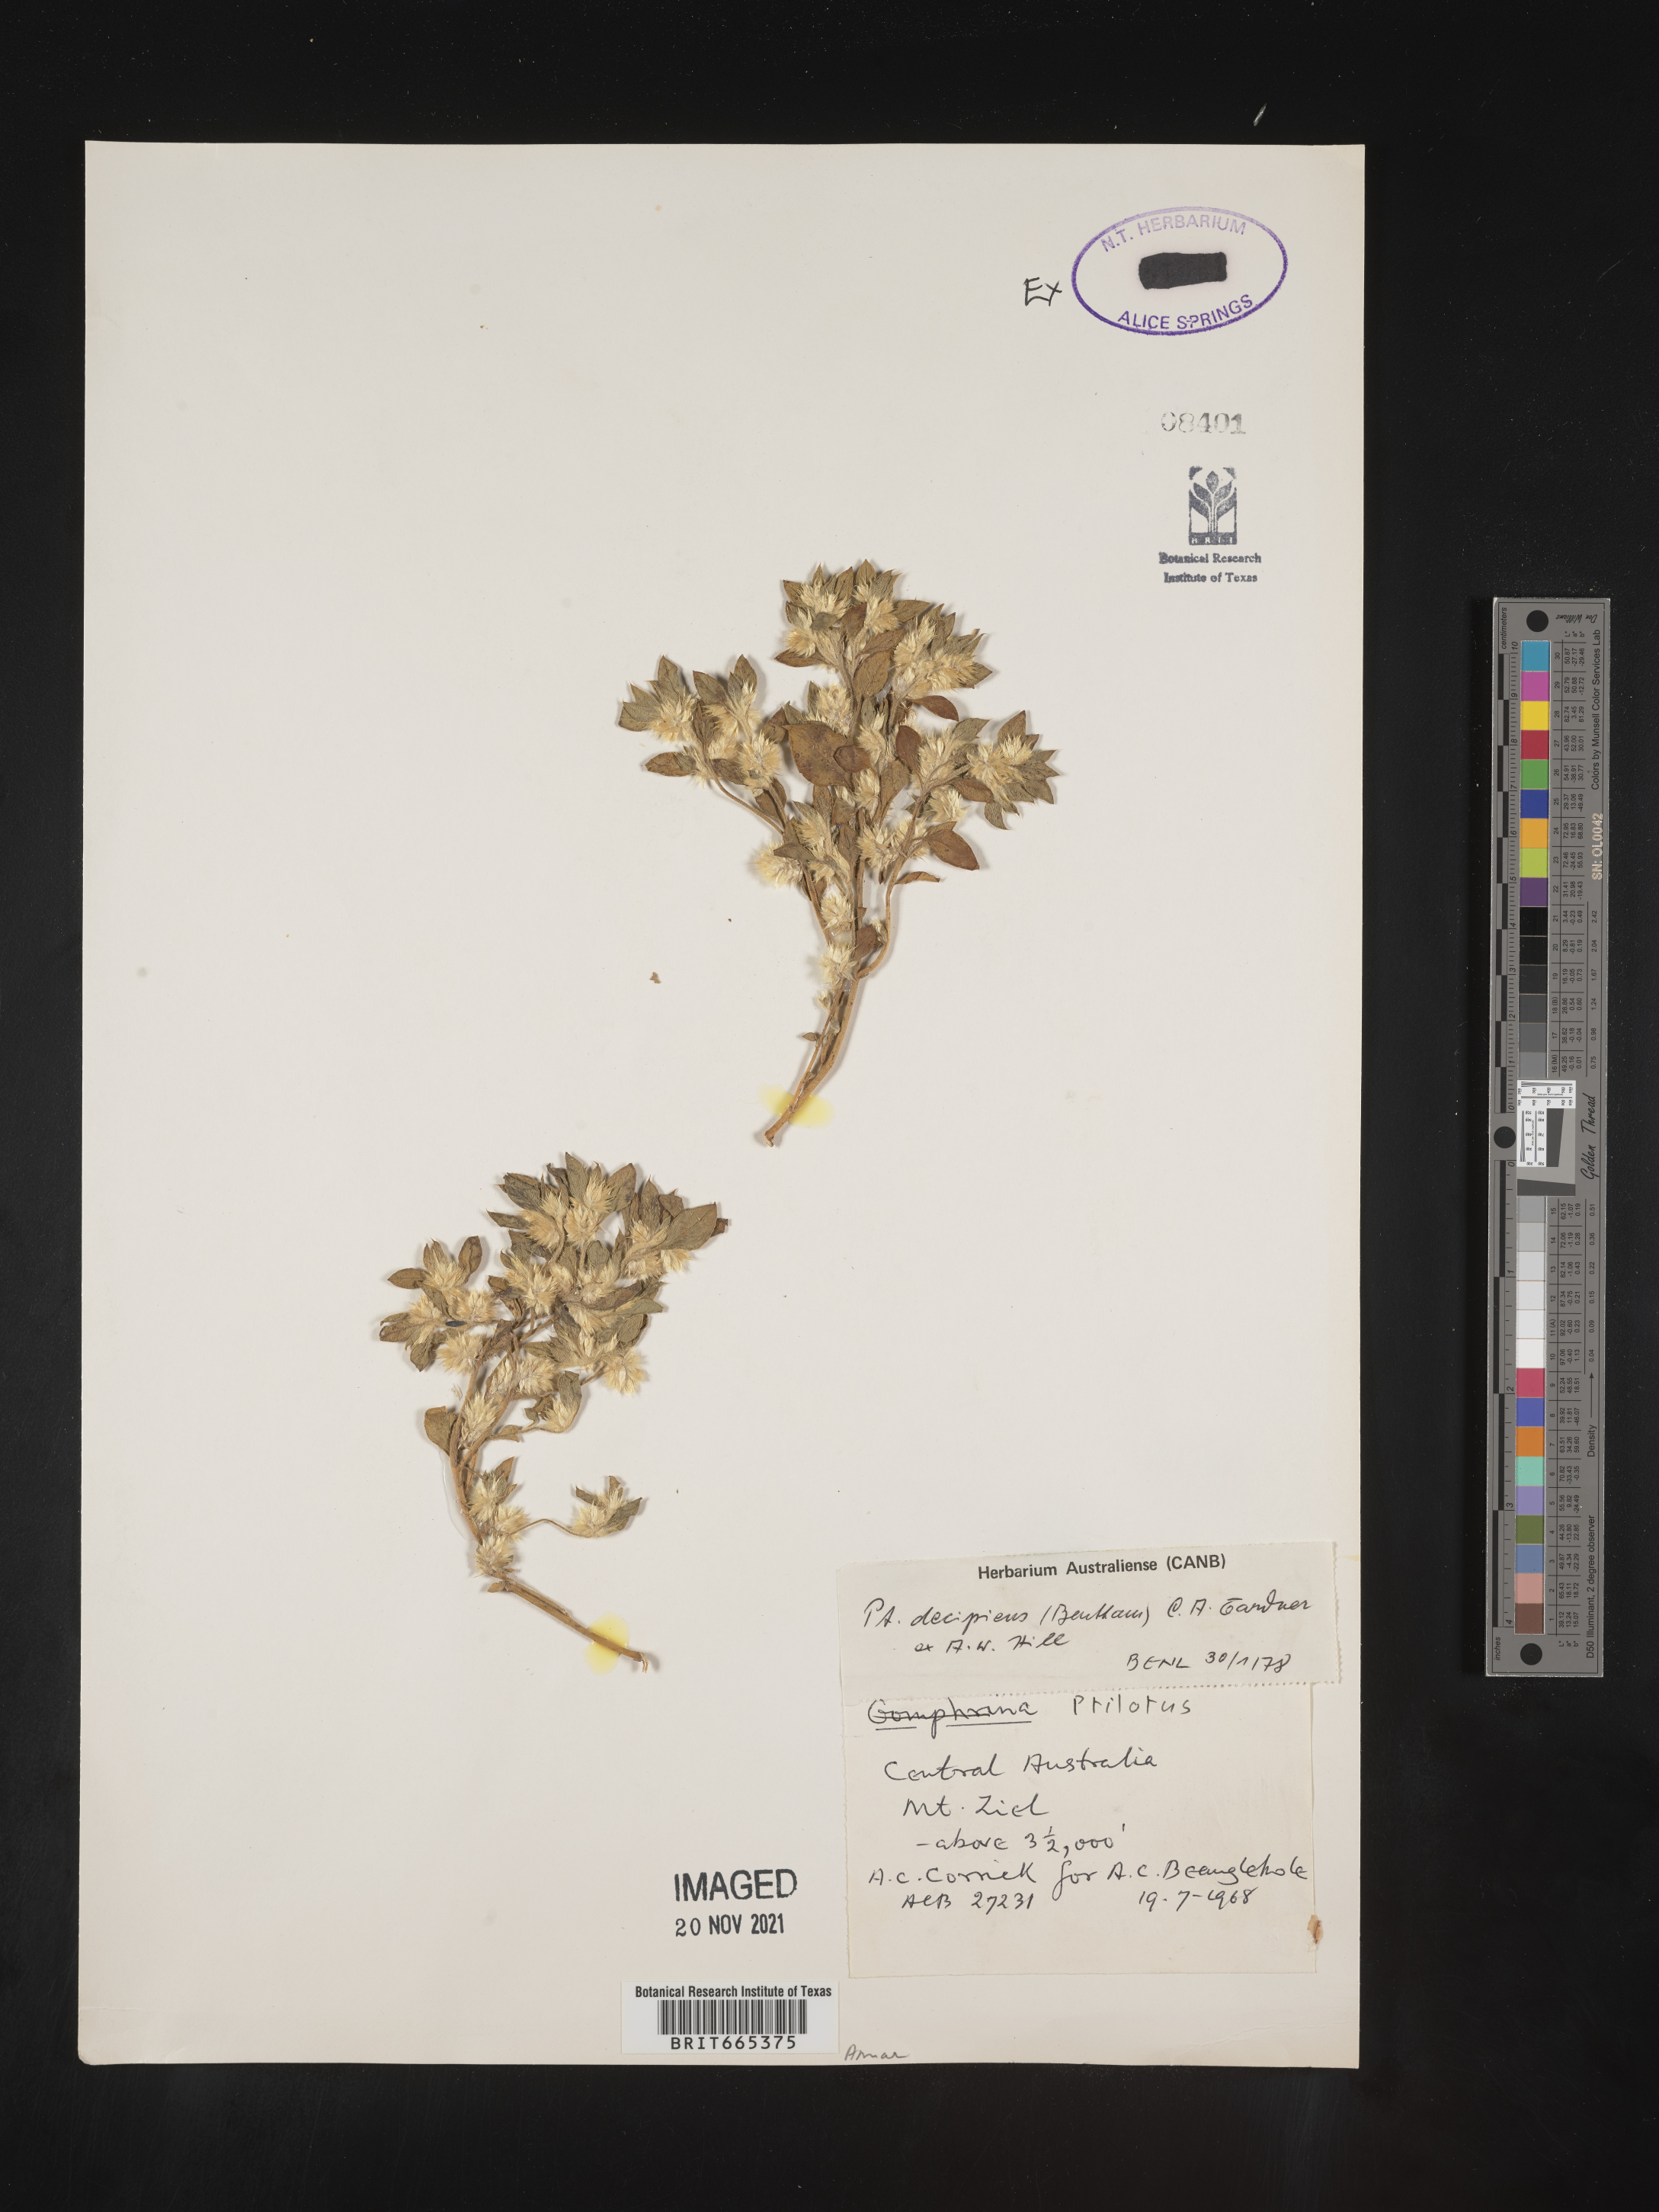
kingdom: Plantae
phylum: Tracheophyta
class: Magnoliopsida
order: Caryophyllales
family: Amaranthaceae
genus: Ptilotus
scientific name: Ptilotus
